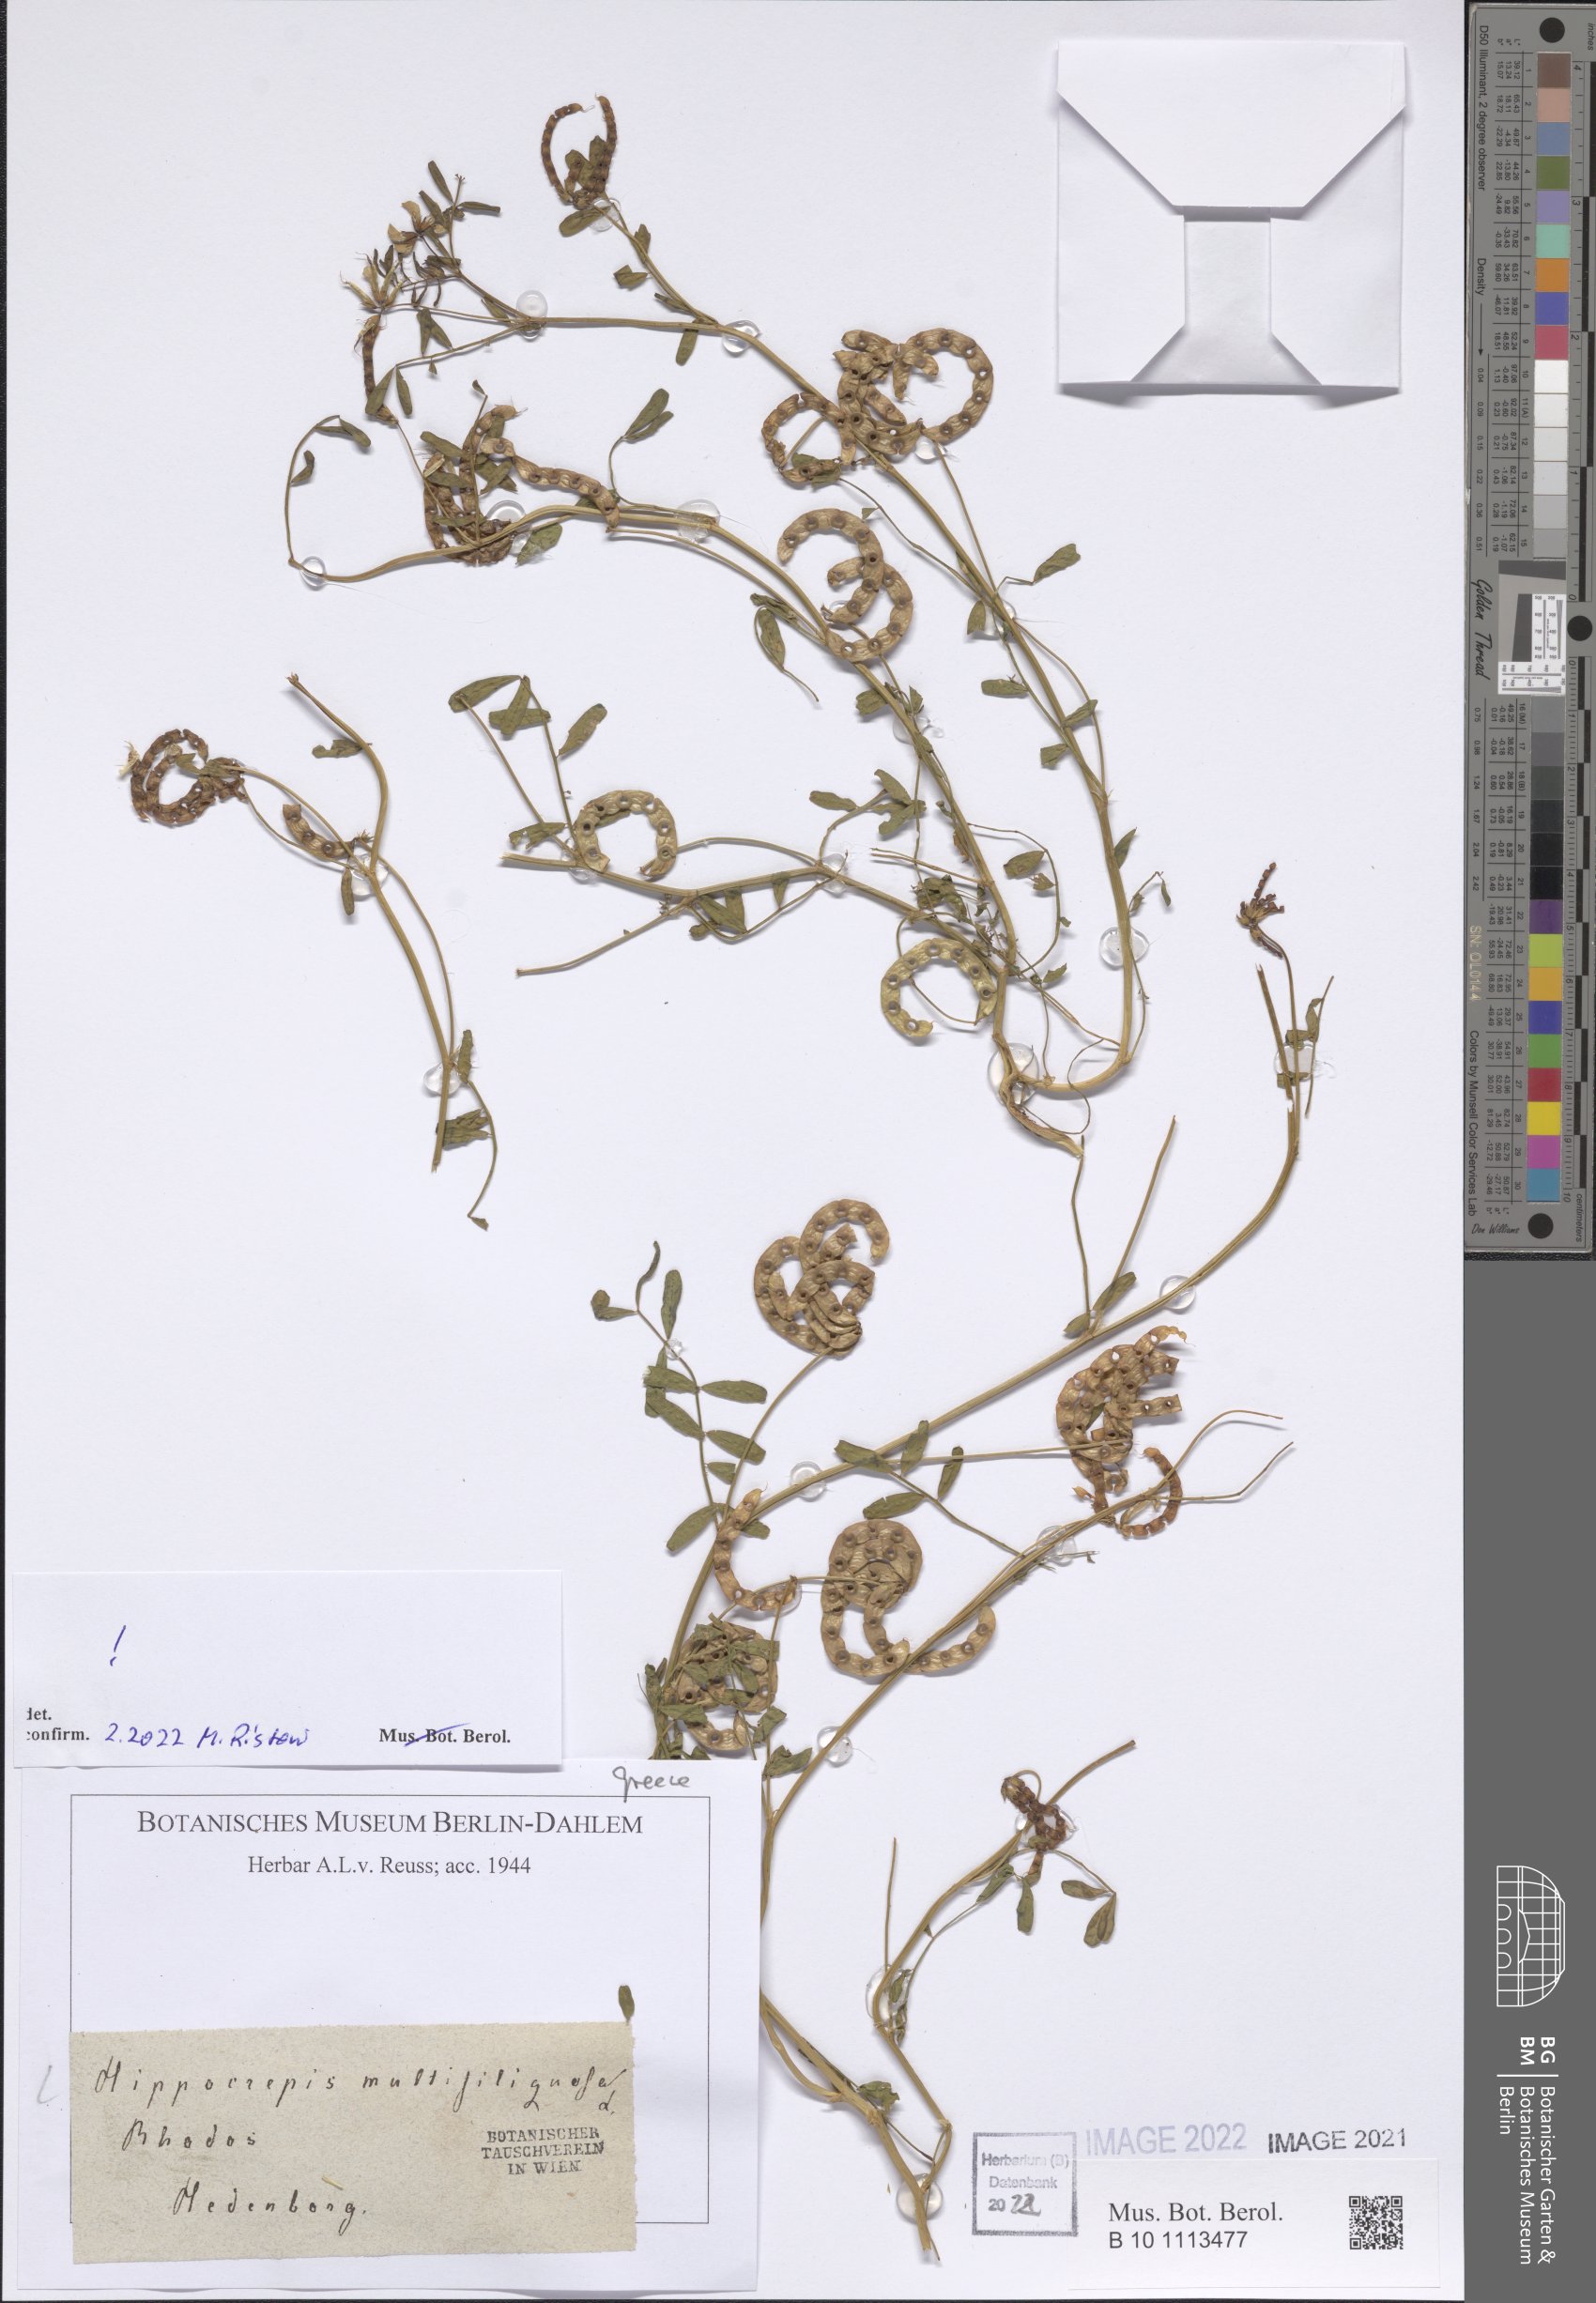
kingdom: Plantae
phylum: Tracheophyta
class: Magnoliopsida
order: Fabales
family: Fabaceae
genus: Hippocrepis
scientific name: Hippocrepis multisiliquosa
